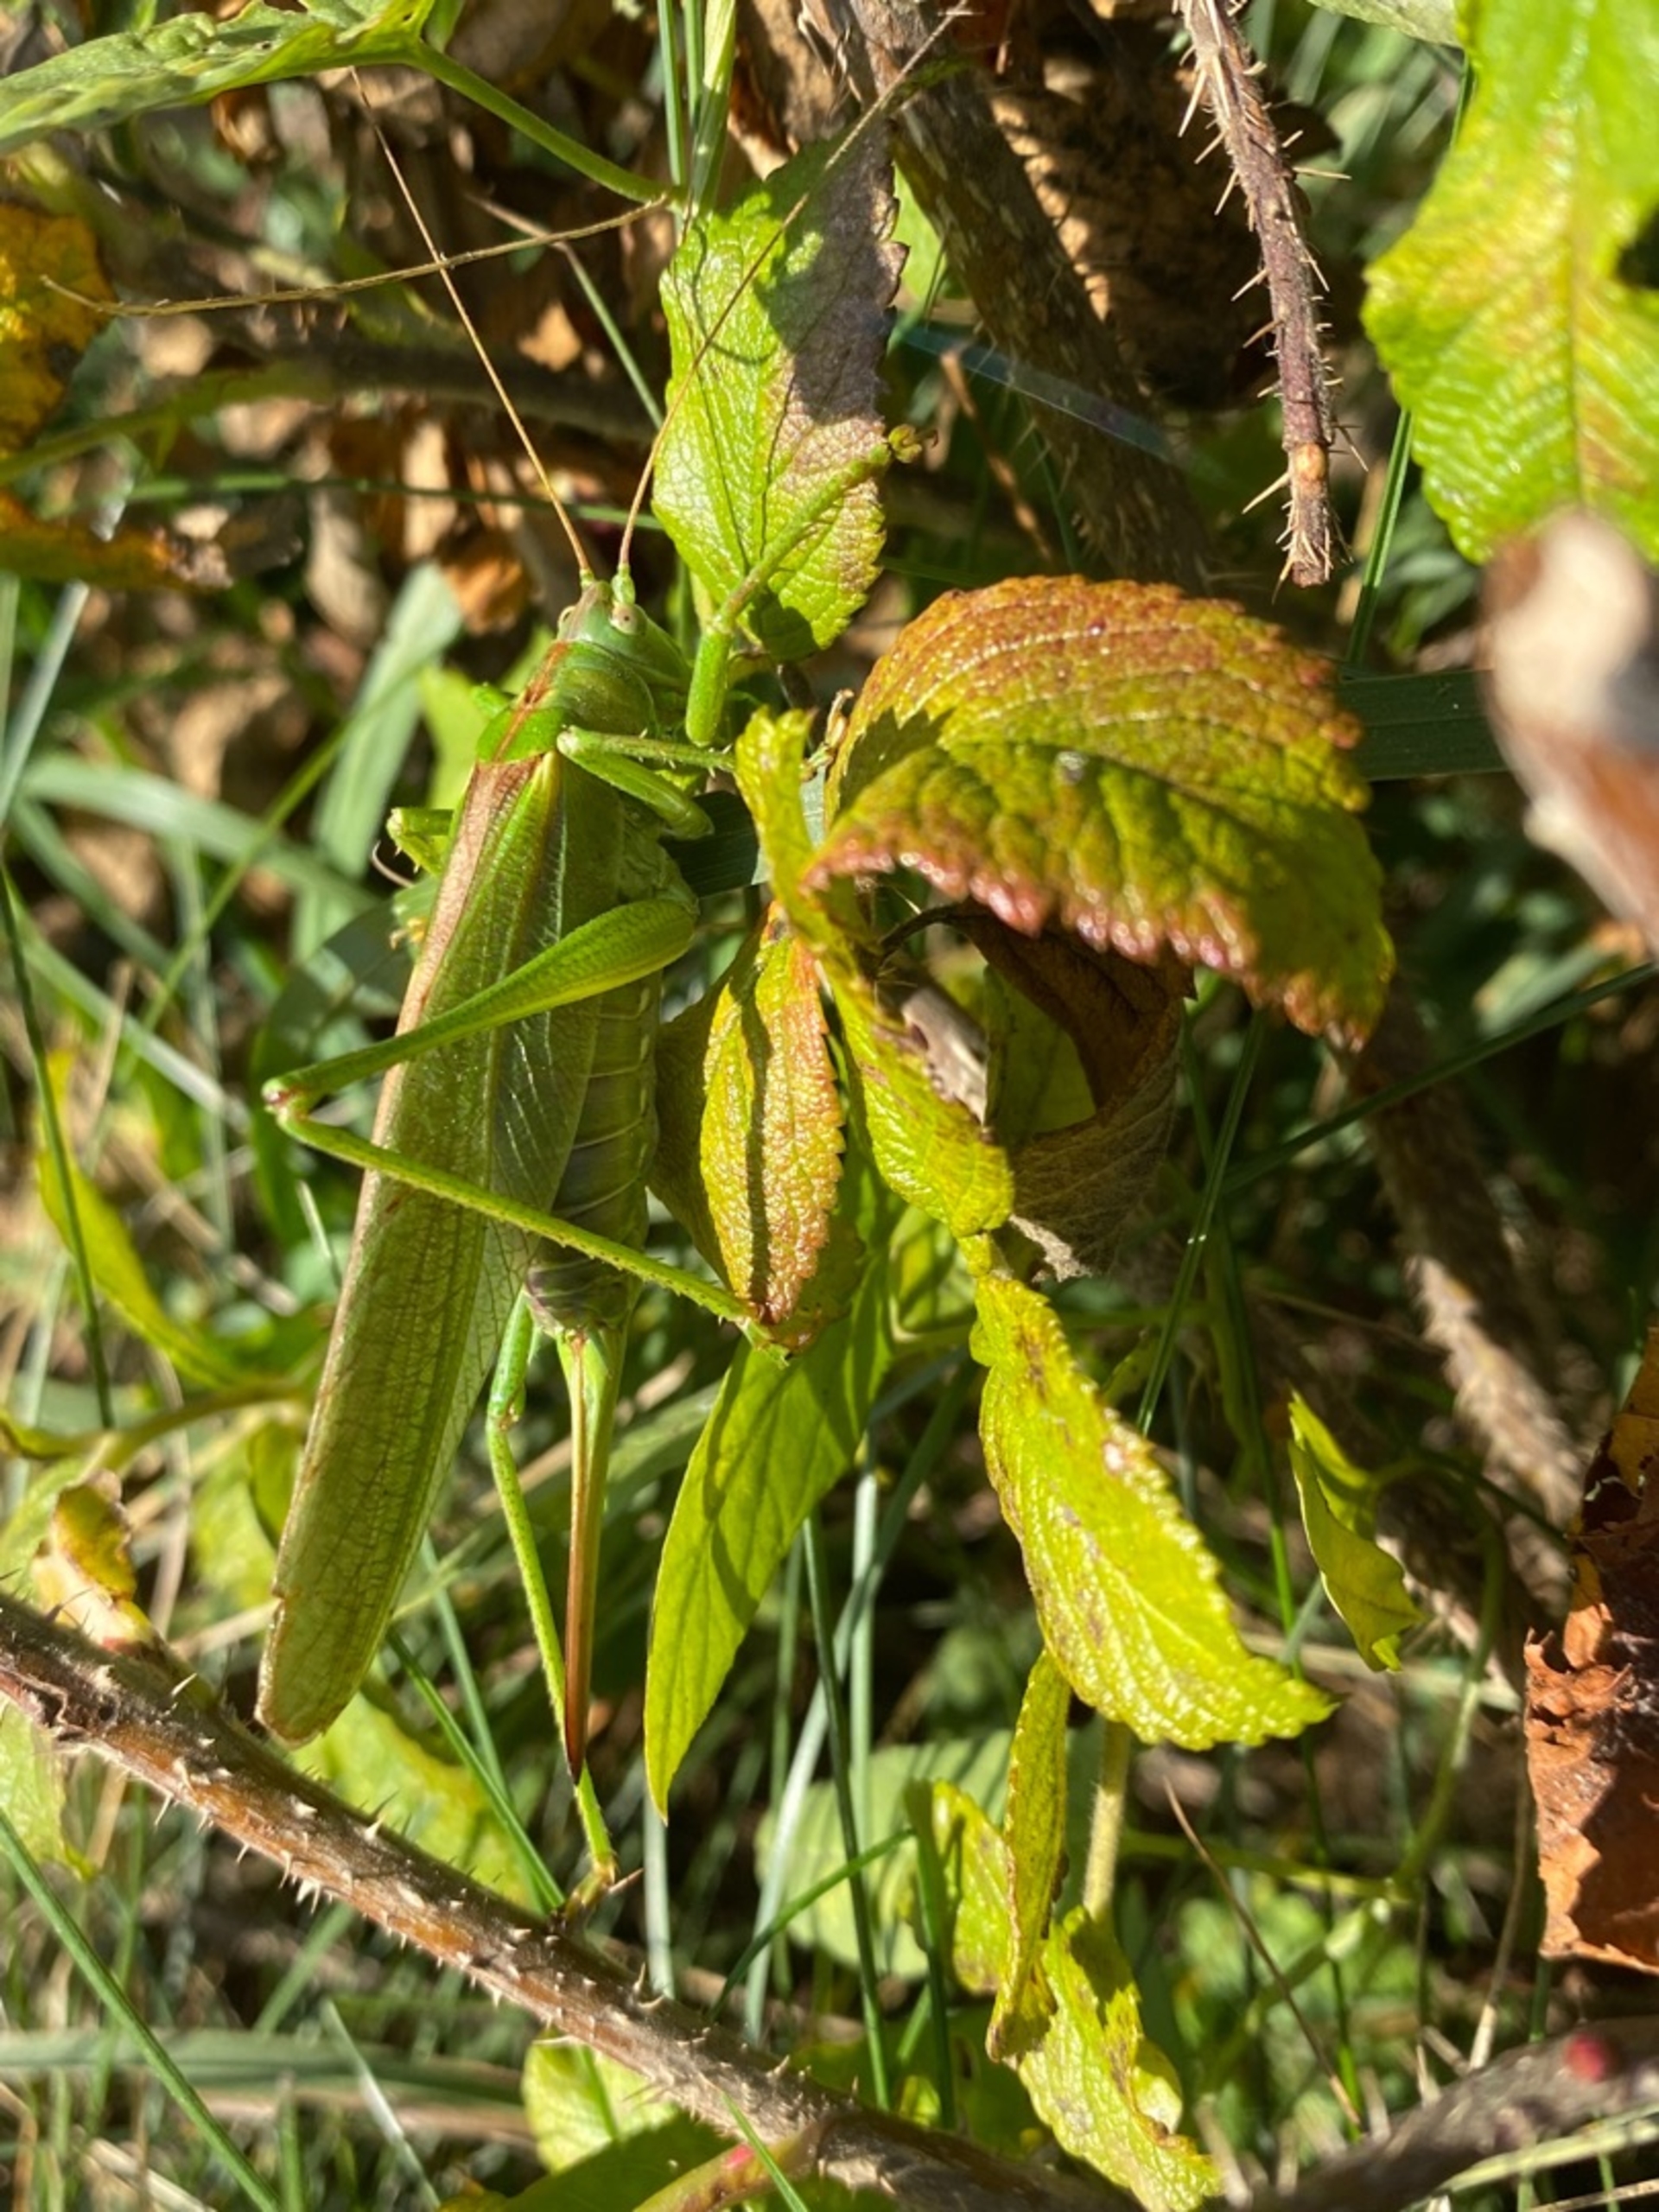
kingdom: Animalia
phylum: Arthropoda
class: Insecta
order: Orthoptera
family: Tettigoniidae
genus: Tettigonia
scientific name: Tettigonia viridissima
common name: Stor grøn løvgræshoppe
